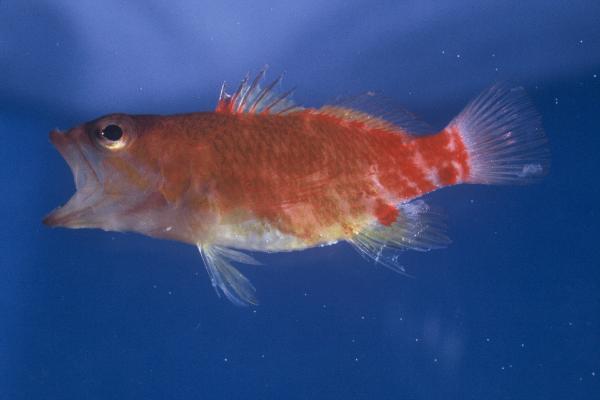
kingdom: Animalia
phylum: Chordata
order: Perciformes
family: Serranidae
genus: Plectranthias
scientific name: Plectranthias winniensis
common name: Redblotch perchlet
